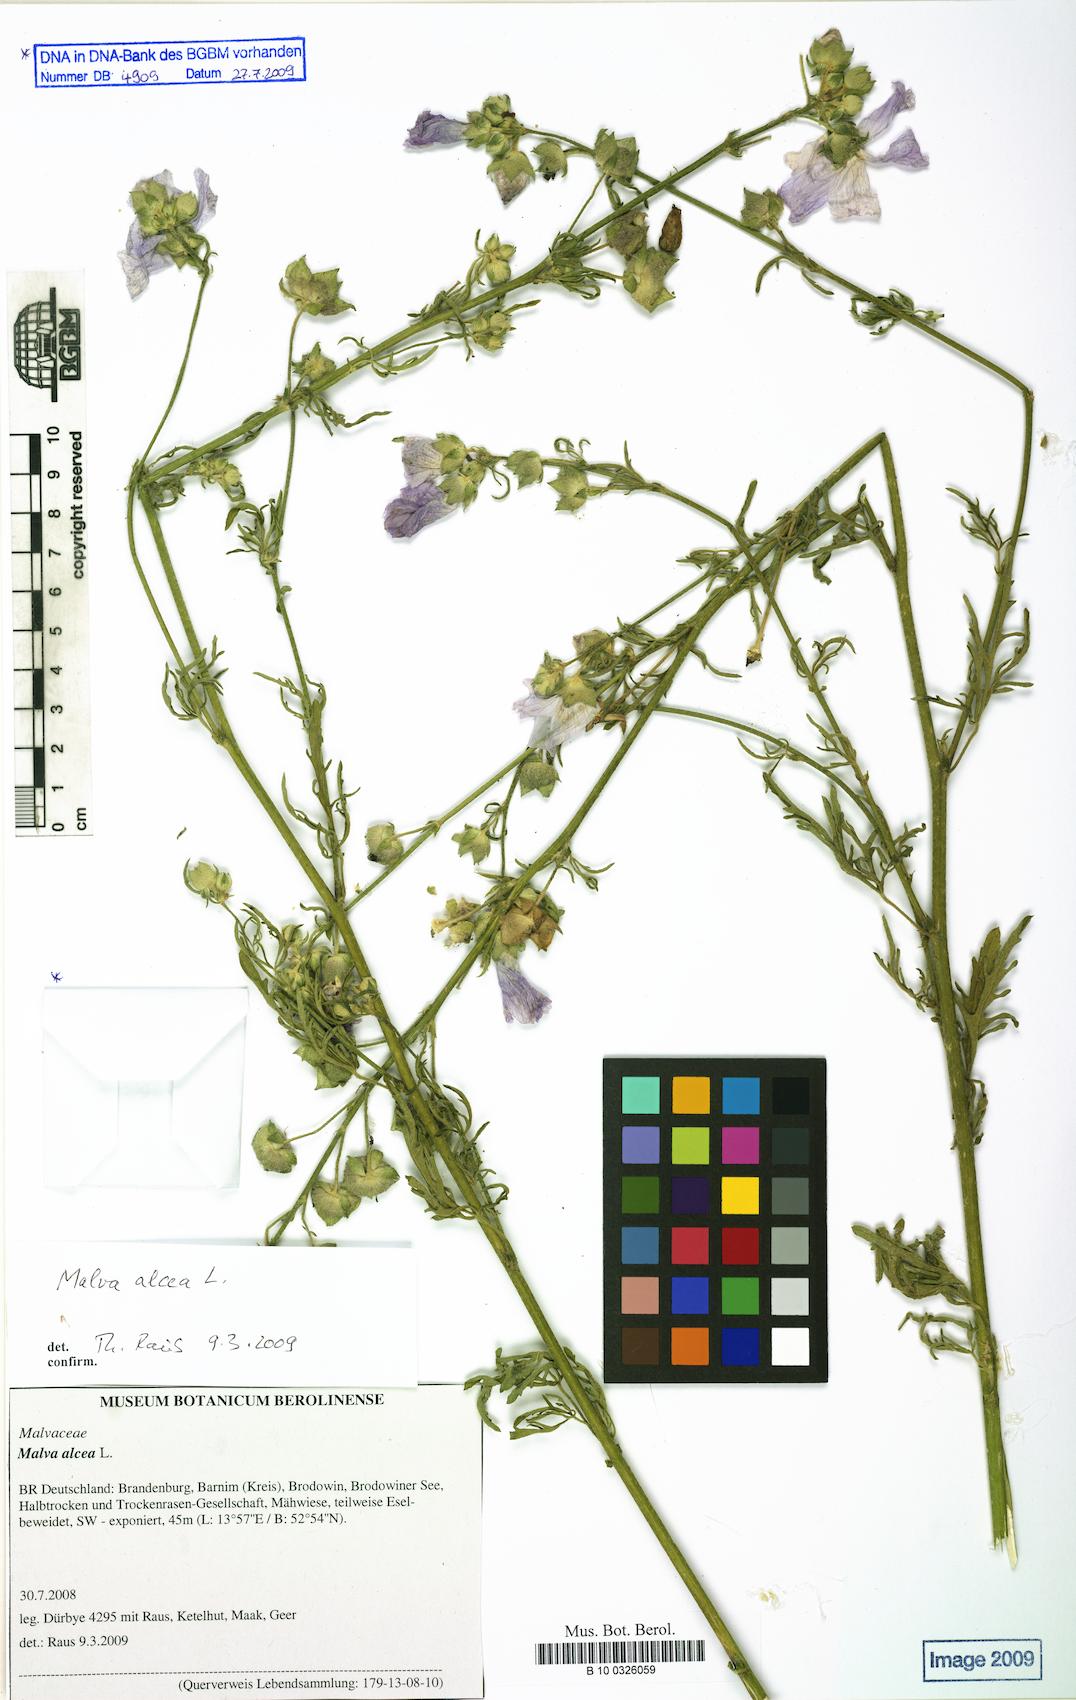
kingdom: Plantae
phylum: Tracheophyta
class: Magnoliopsida
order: Malvales
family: Malvaceae
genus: Malva
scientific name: Malva alcea
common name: Greater musk-mallow
